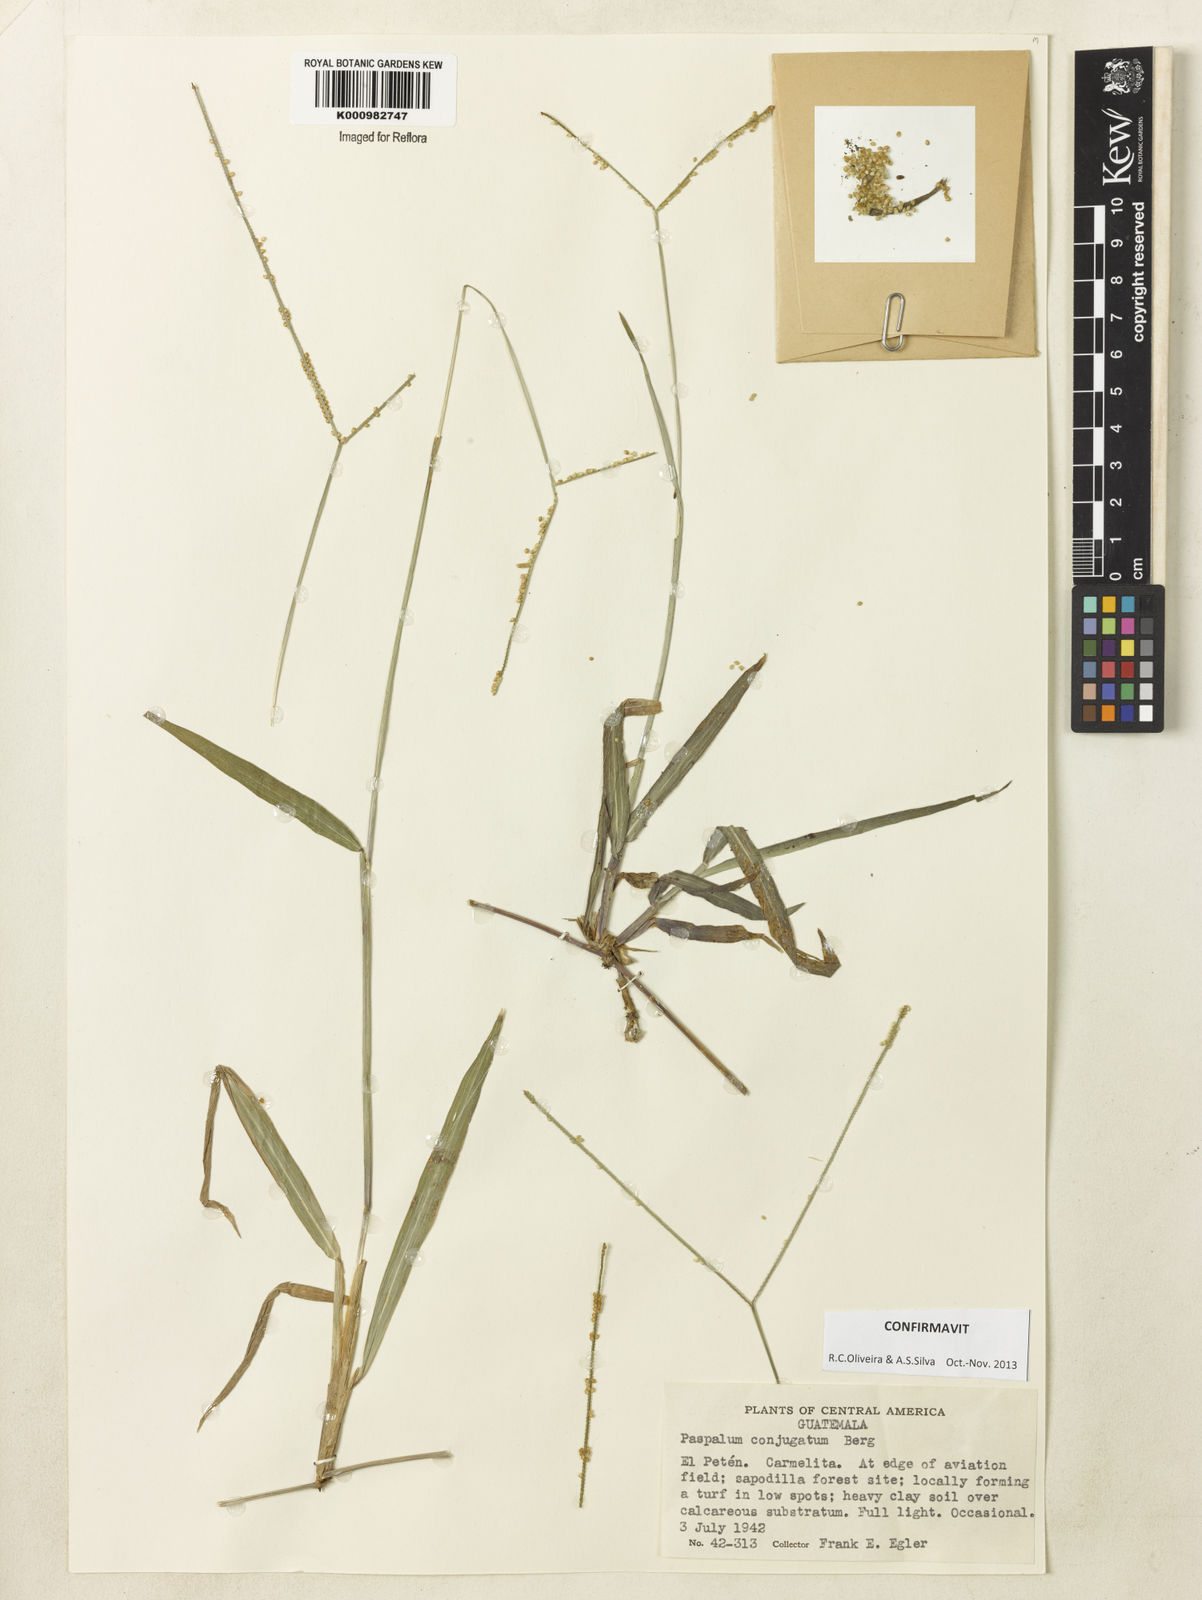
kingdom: Plantae
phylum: Tracheophyta
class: Liliopsida
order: Poales
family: Poaceae
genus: Paspalum
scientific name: Paspalum conjugatum
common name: Hilograss
